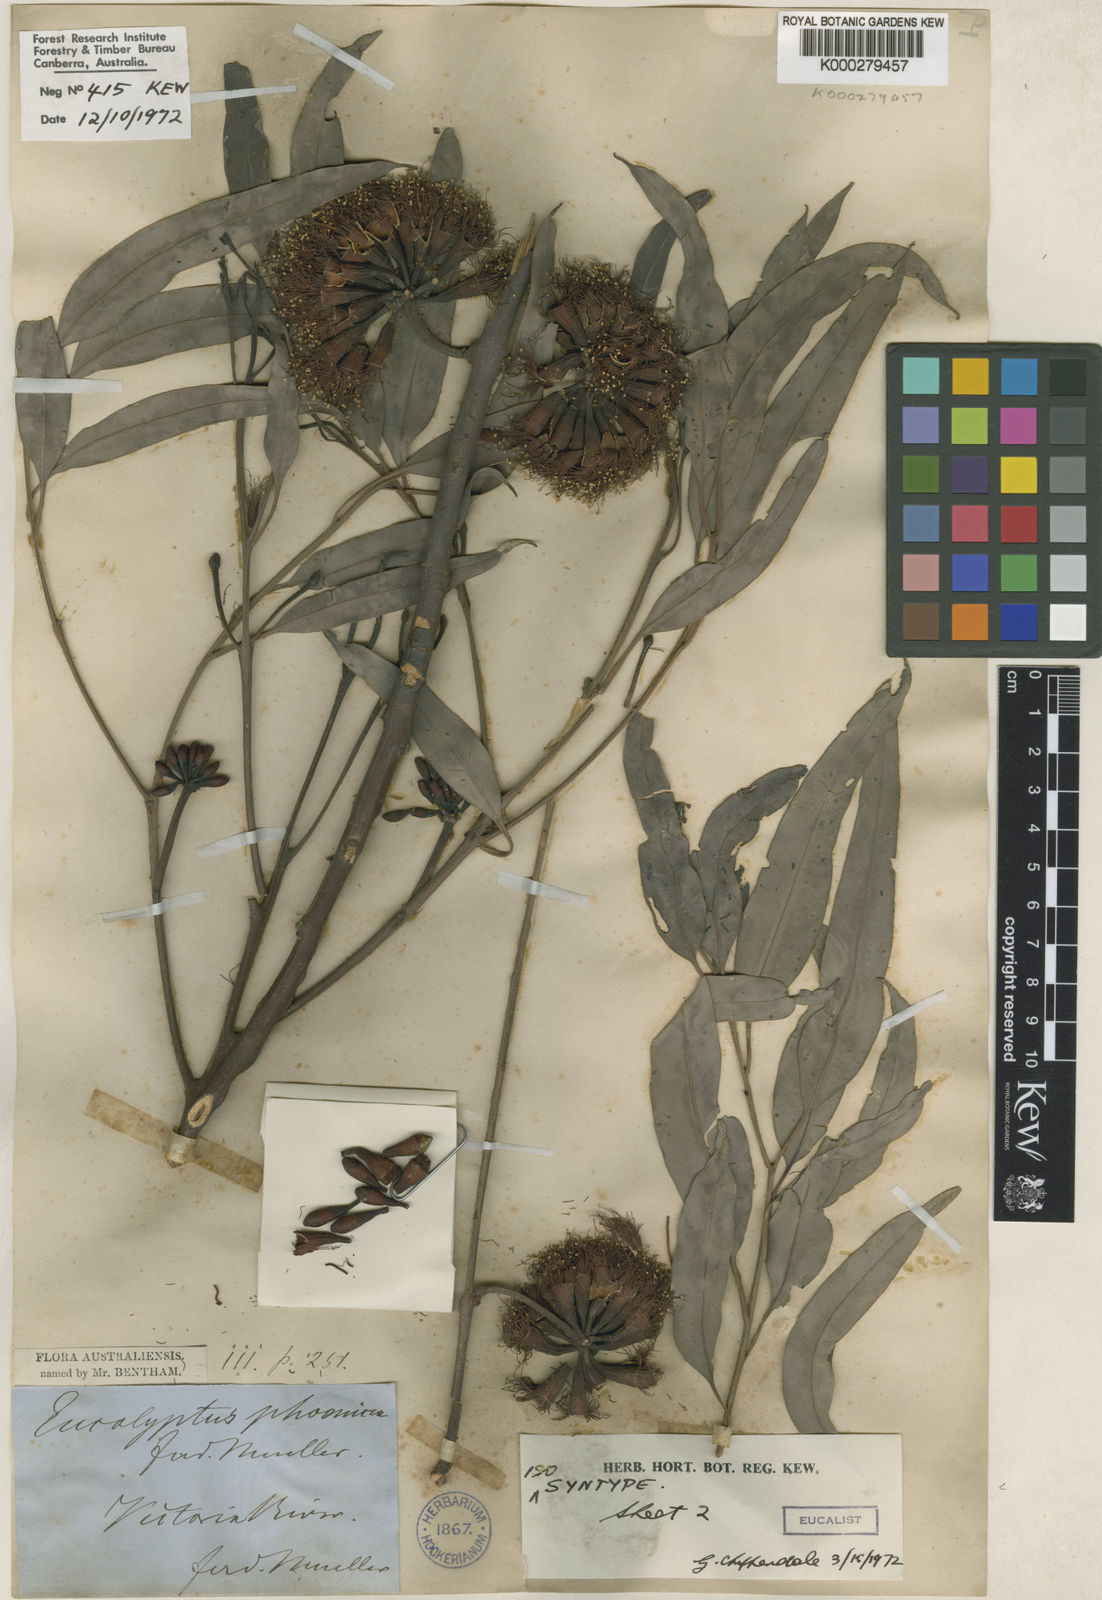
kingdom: Plantae
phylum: Tracheophyta
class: Magnoliopsida
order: Myrtales
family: Myrtaceae
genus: Eucalyptus
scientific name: Eucalyptus phoenicea
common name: Gnaingar
